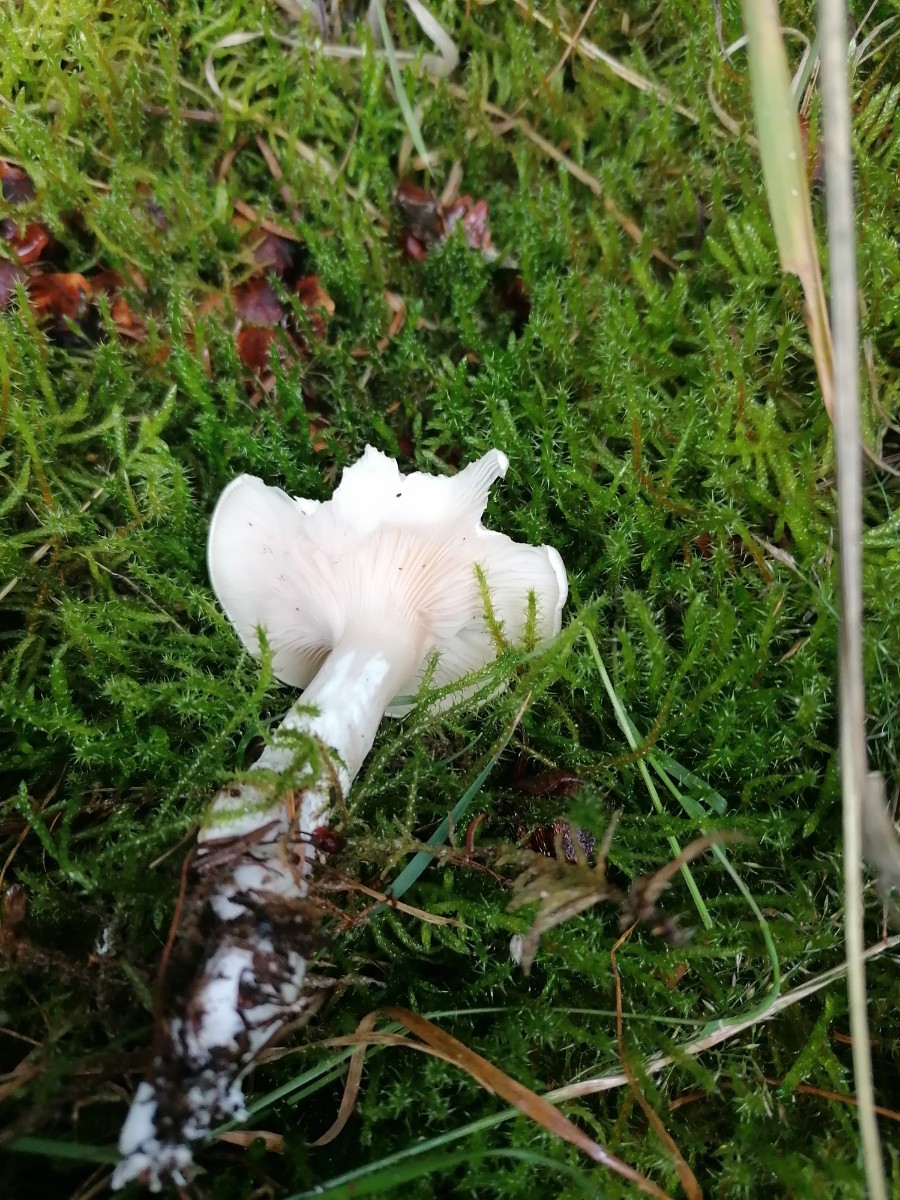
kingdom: Fungi
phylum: Basidiomycota
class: Agaricomycetes
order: Agaricales
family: Entolomataceae
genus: Clitopilus
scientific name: Clitopilus prunulus
